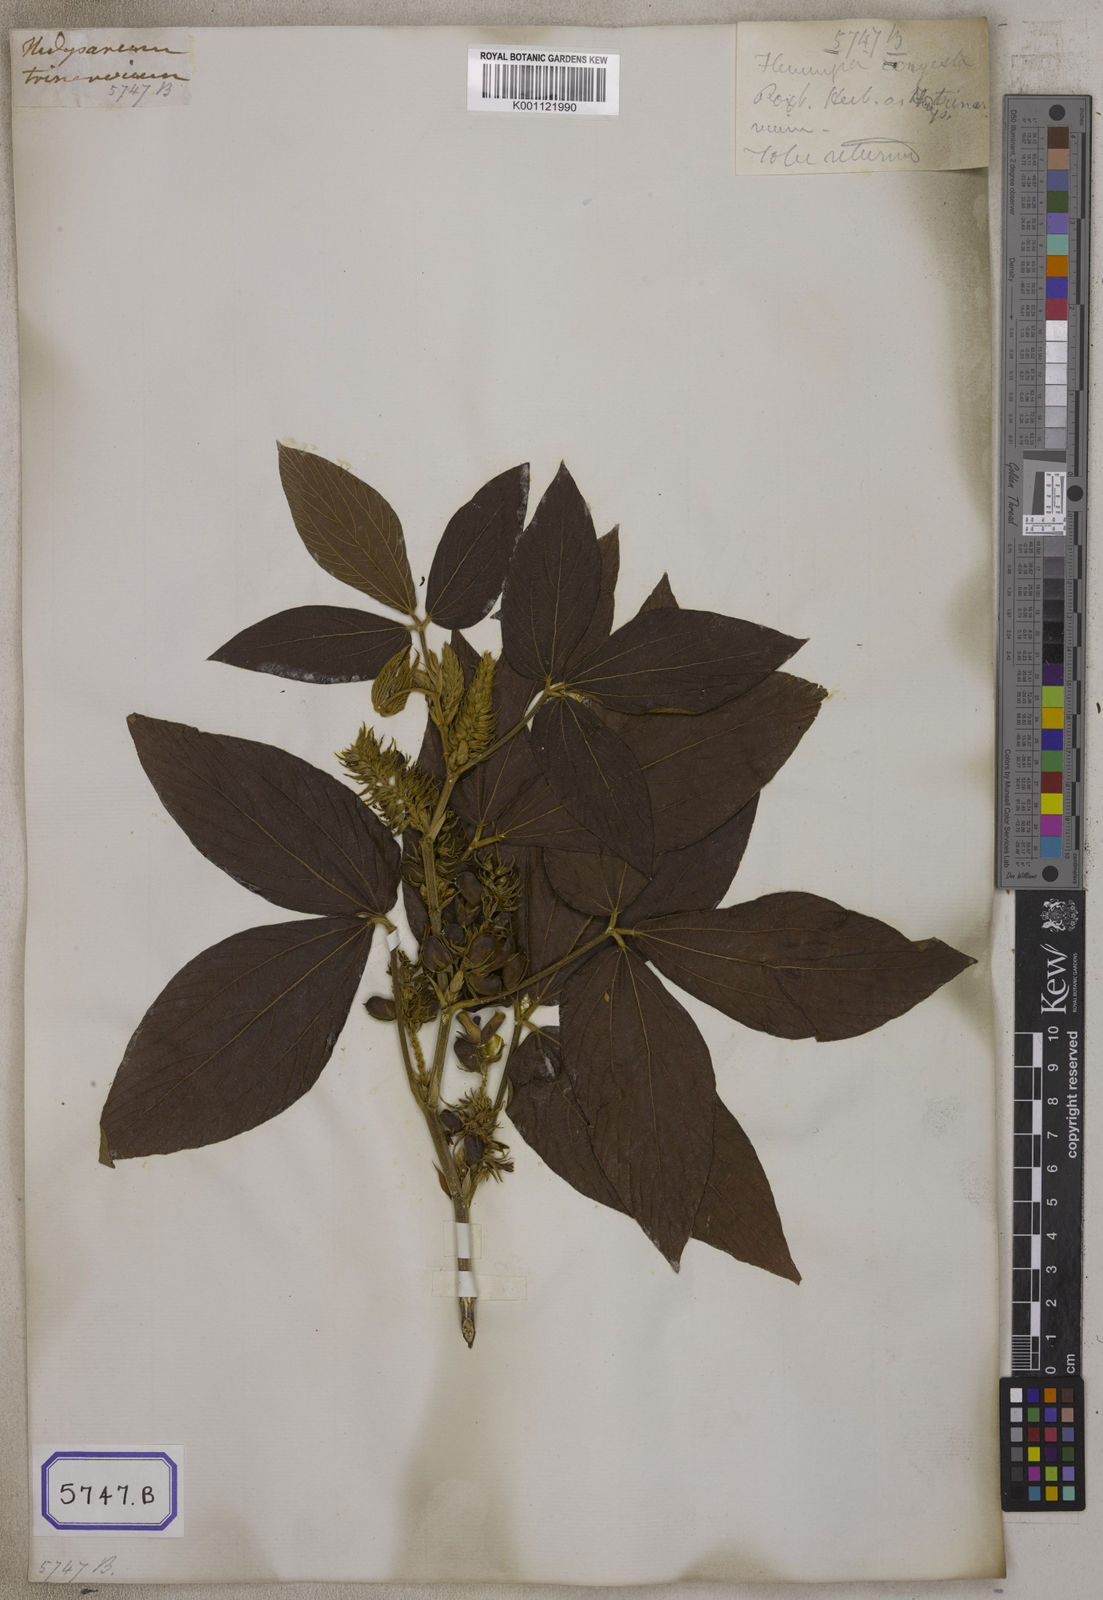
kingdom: Plantae
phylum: Tracheophyta
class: Magnoliopsida
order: Fabales
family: Fabaceae
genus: Flemingia
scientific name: Flemingia
